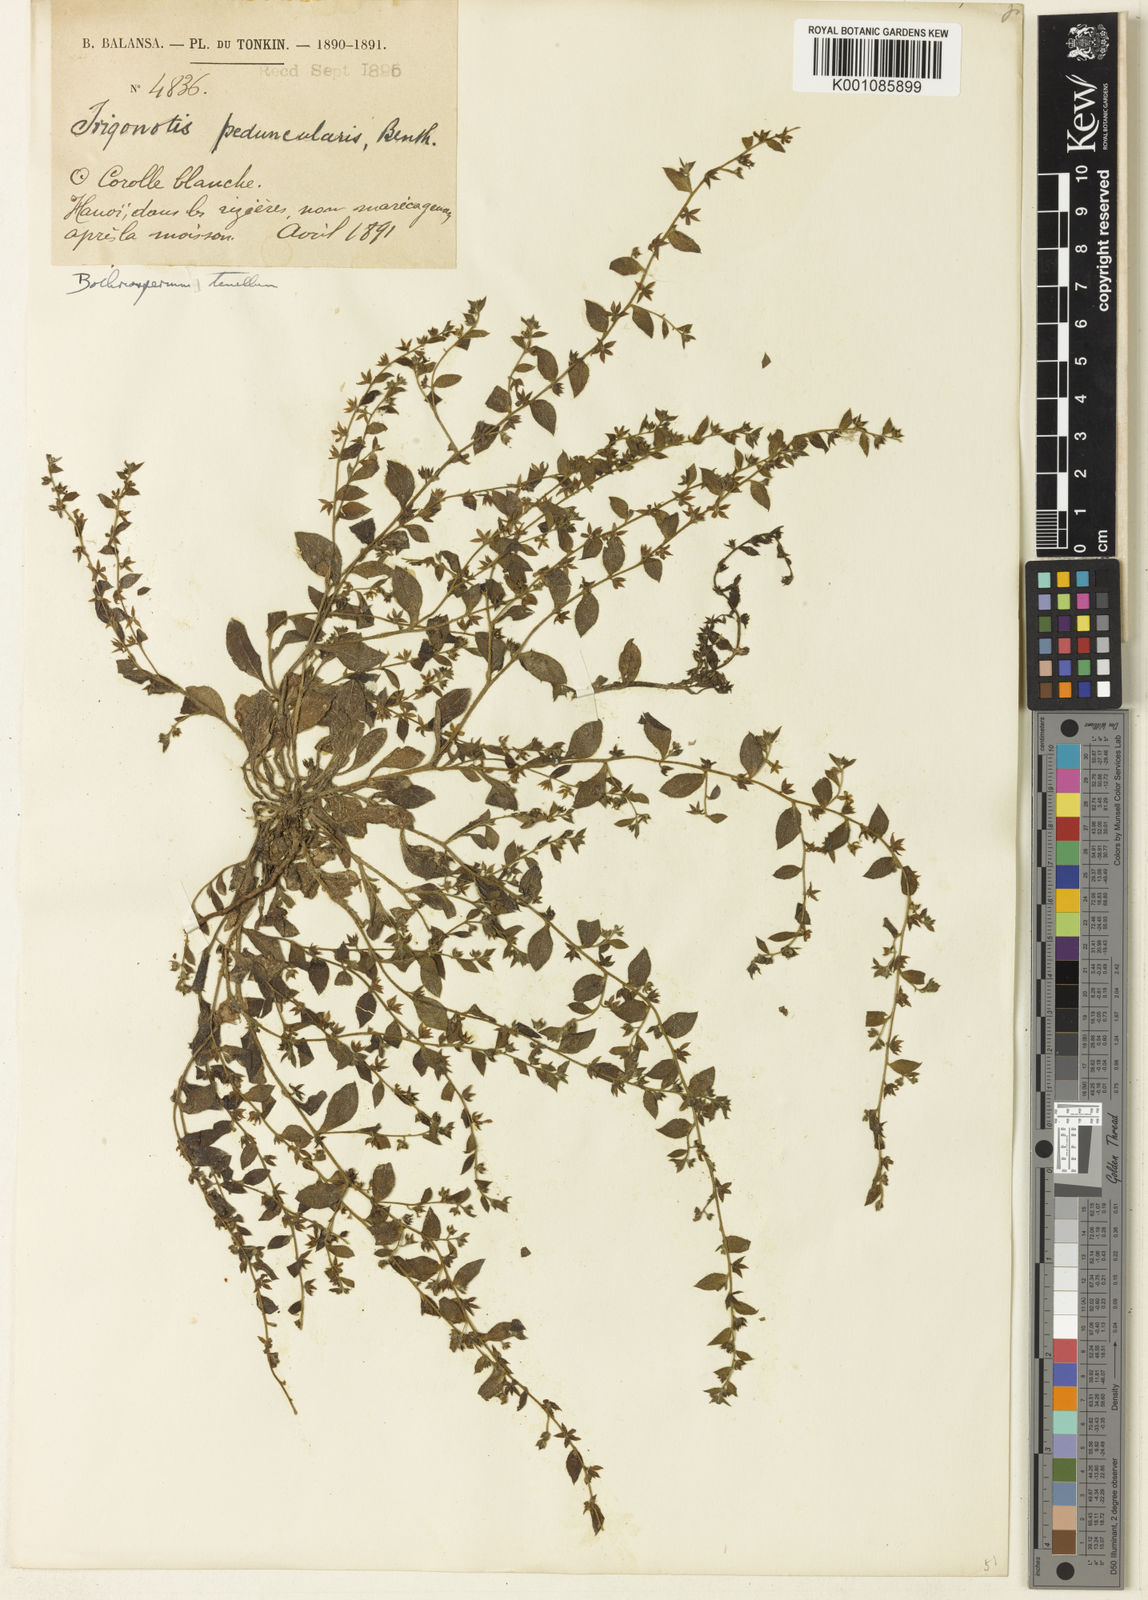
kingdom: Plantae
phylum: Tracheophyta
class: Magnoliopsida
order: Boraginales
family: Boraginaceae
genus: Trigonotis
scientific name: Trigonotis
